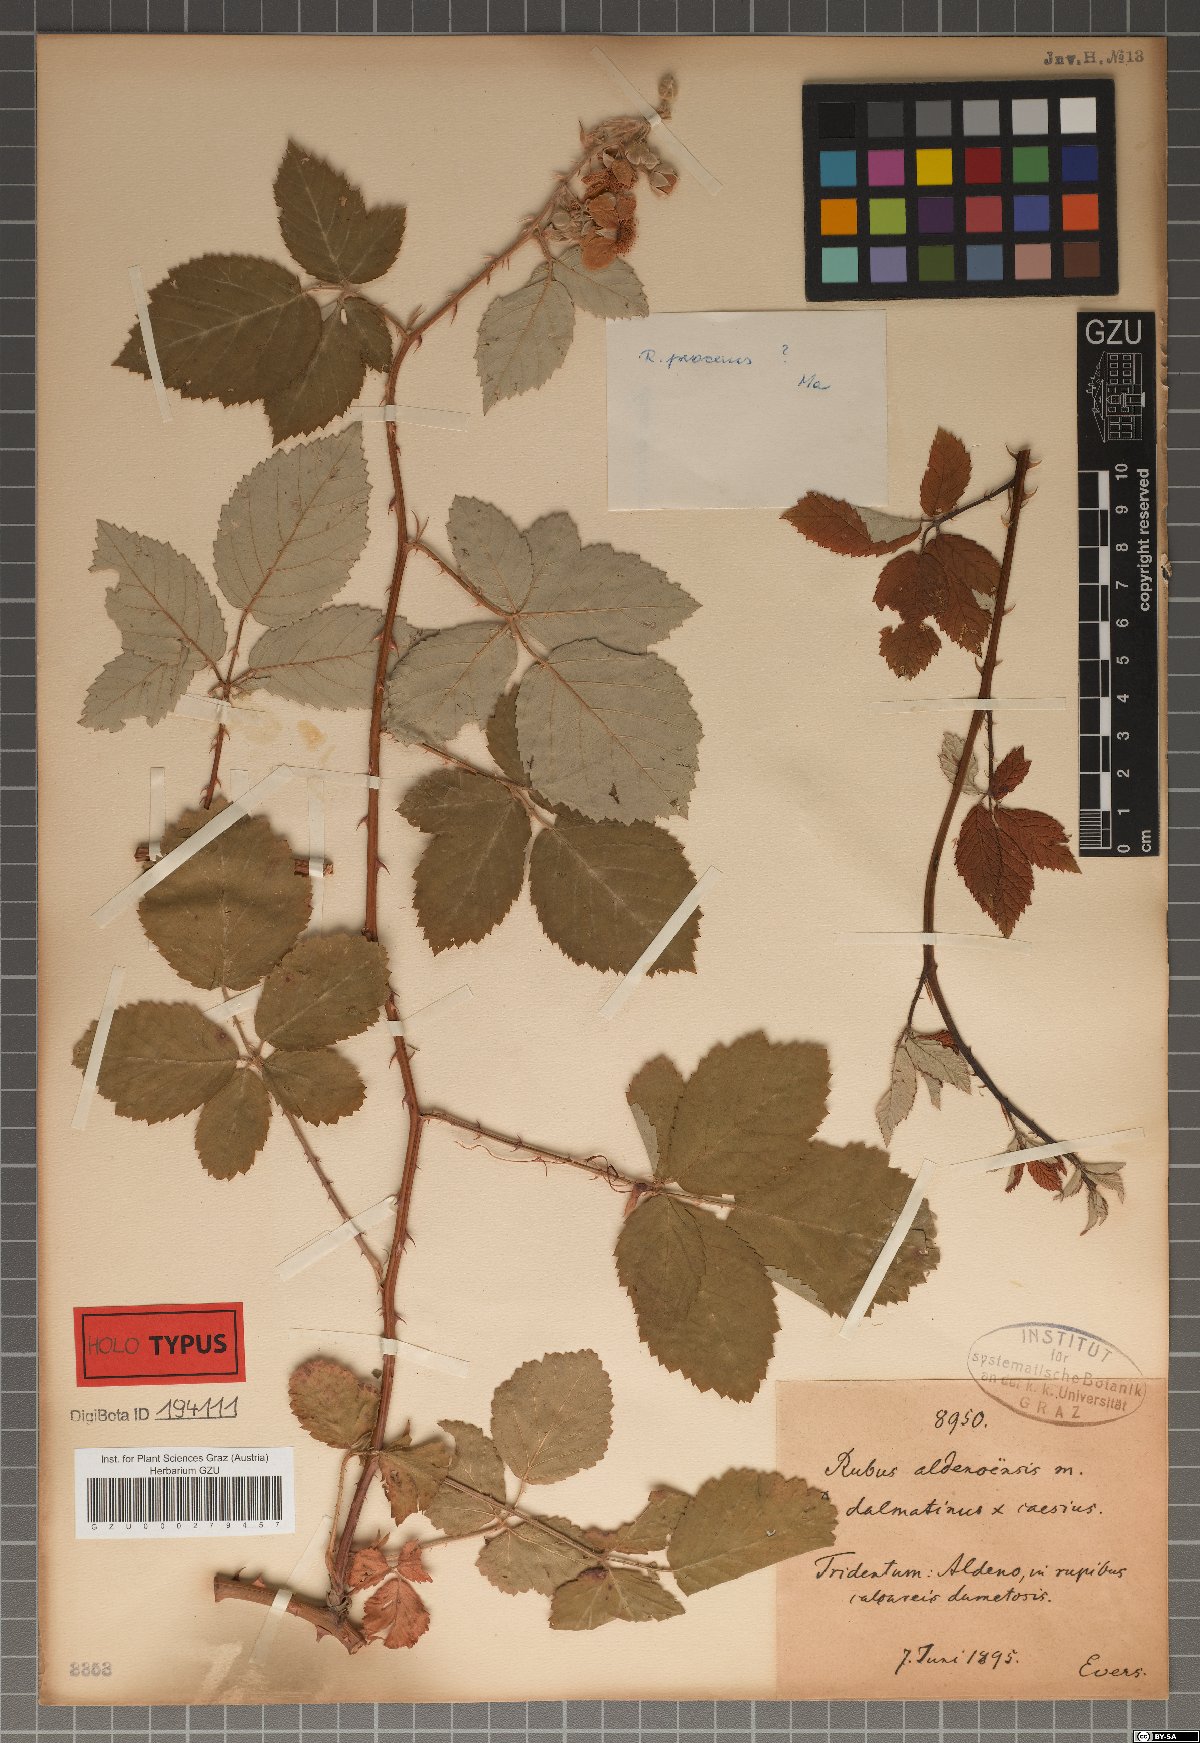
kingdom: Plantae
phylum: Tracheophyta
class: Magnoliopsida
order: Rosales
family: Rosaceae
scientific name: Rosaceae
